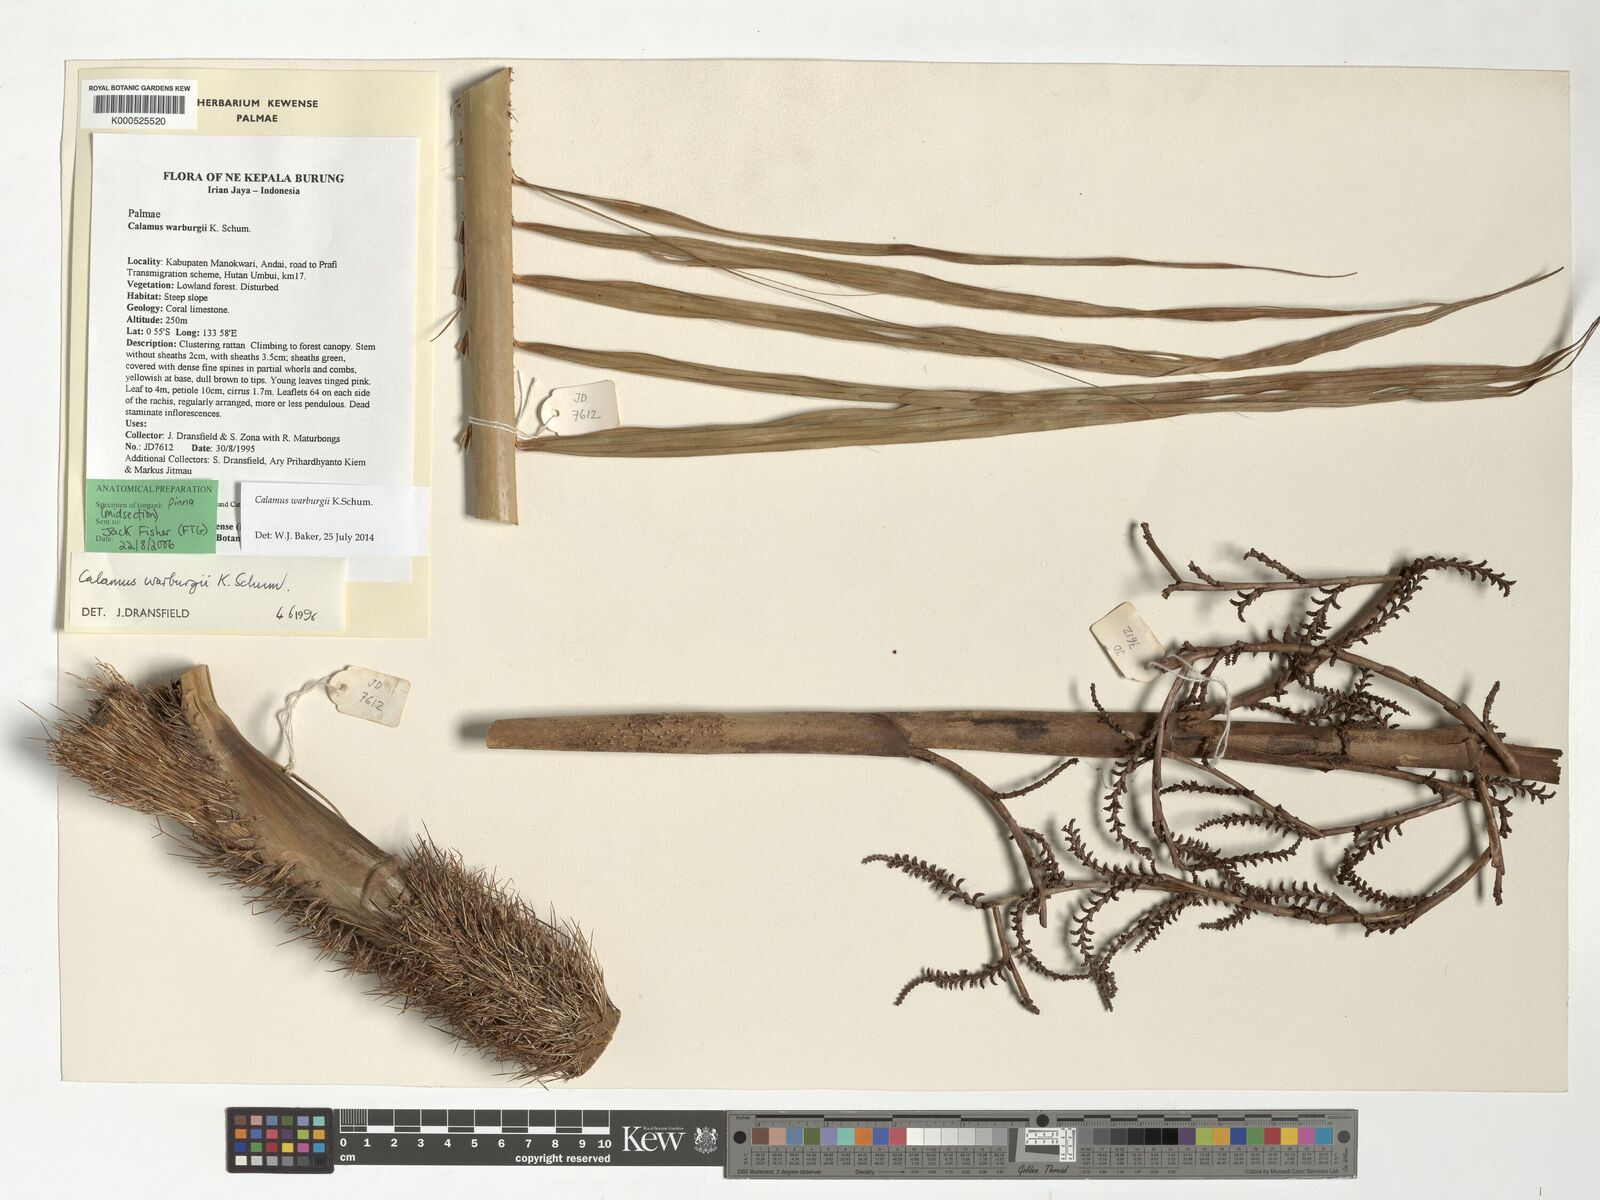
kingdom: Plantae
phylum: Tracheophyta
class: Liliopsida
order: Arecales
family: Arecaceae
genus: Calamus
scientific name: Calamus warburgii
